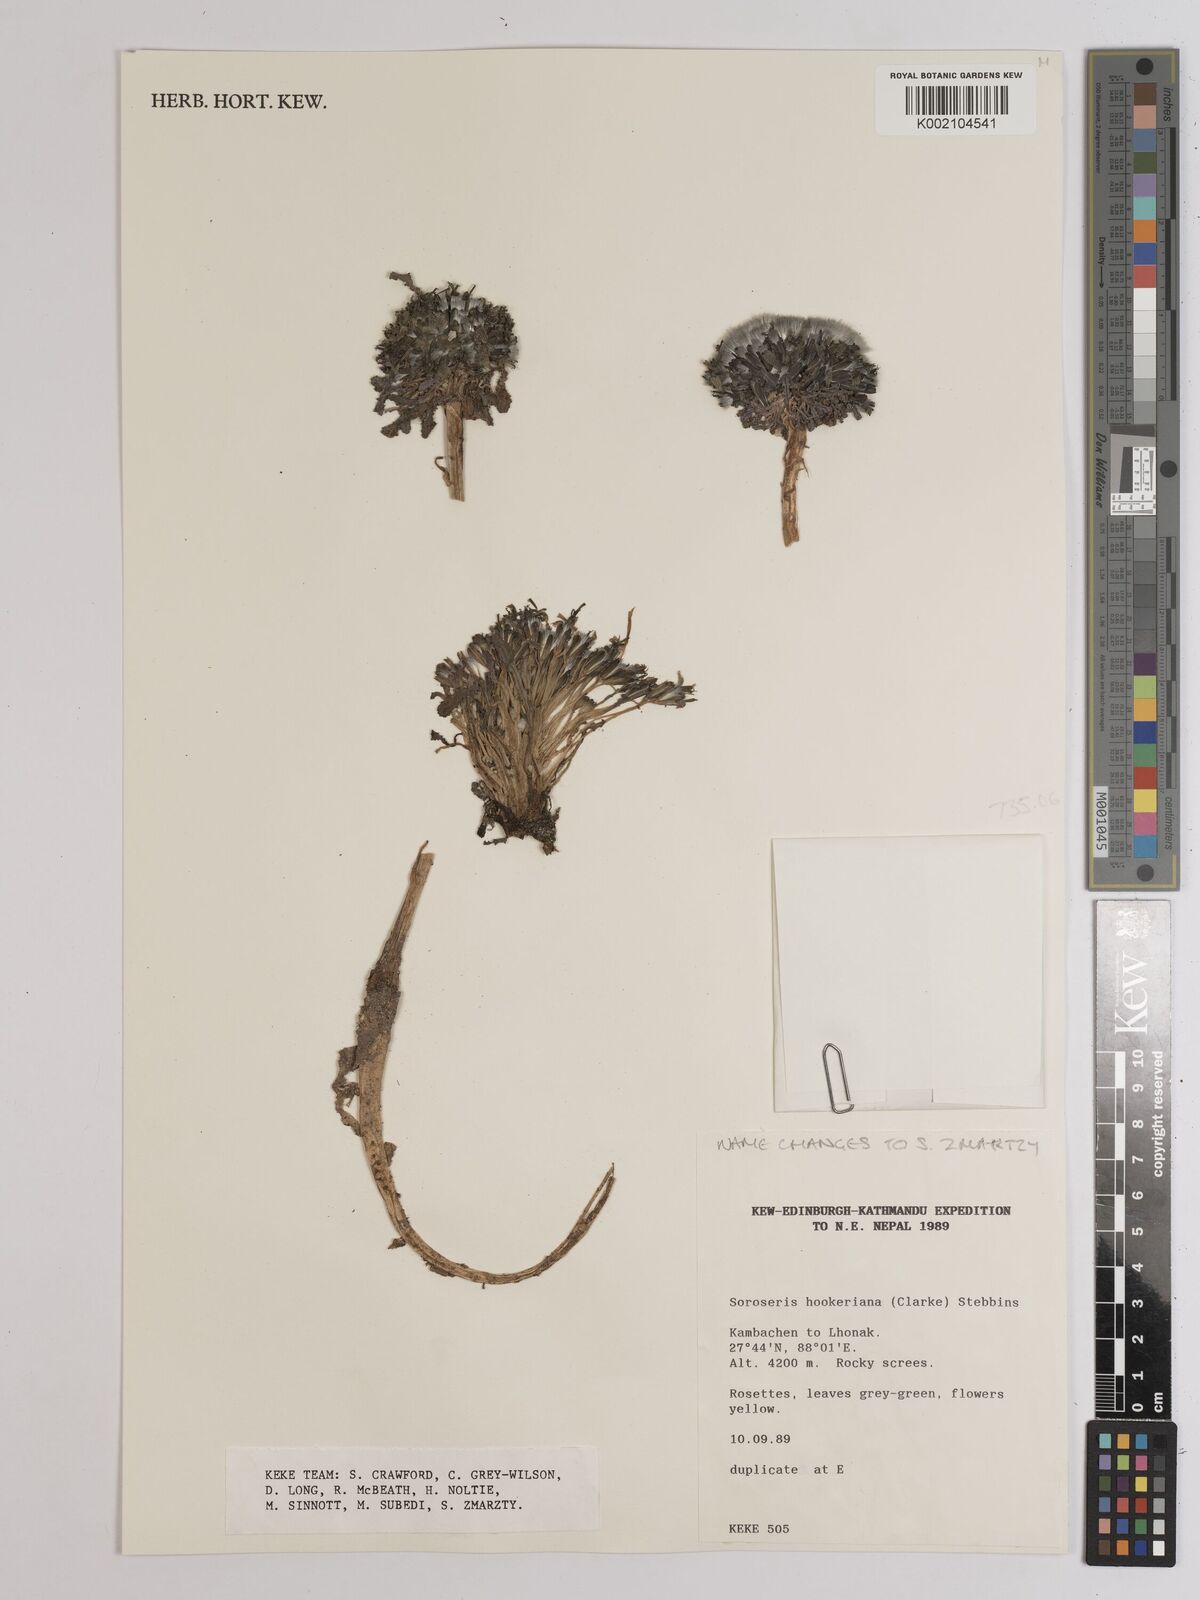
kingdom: Plantae
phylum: Tracheophyta
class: Magnoliopsida
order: Asterales
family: Asteraceae
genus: Soroseris
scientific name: Soroseris hookeriana
